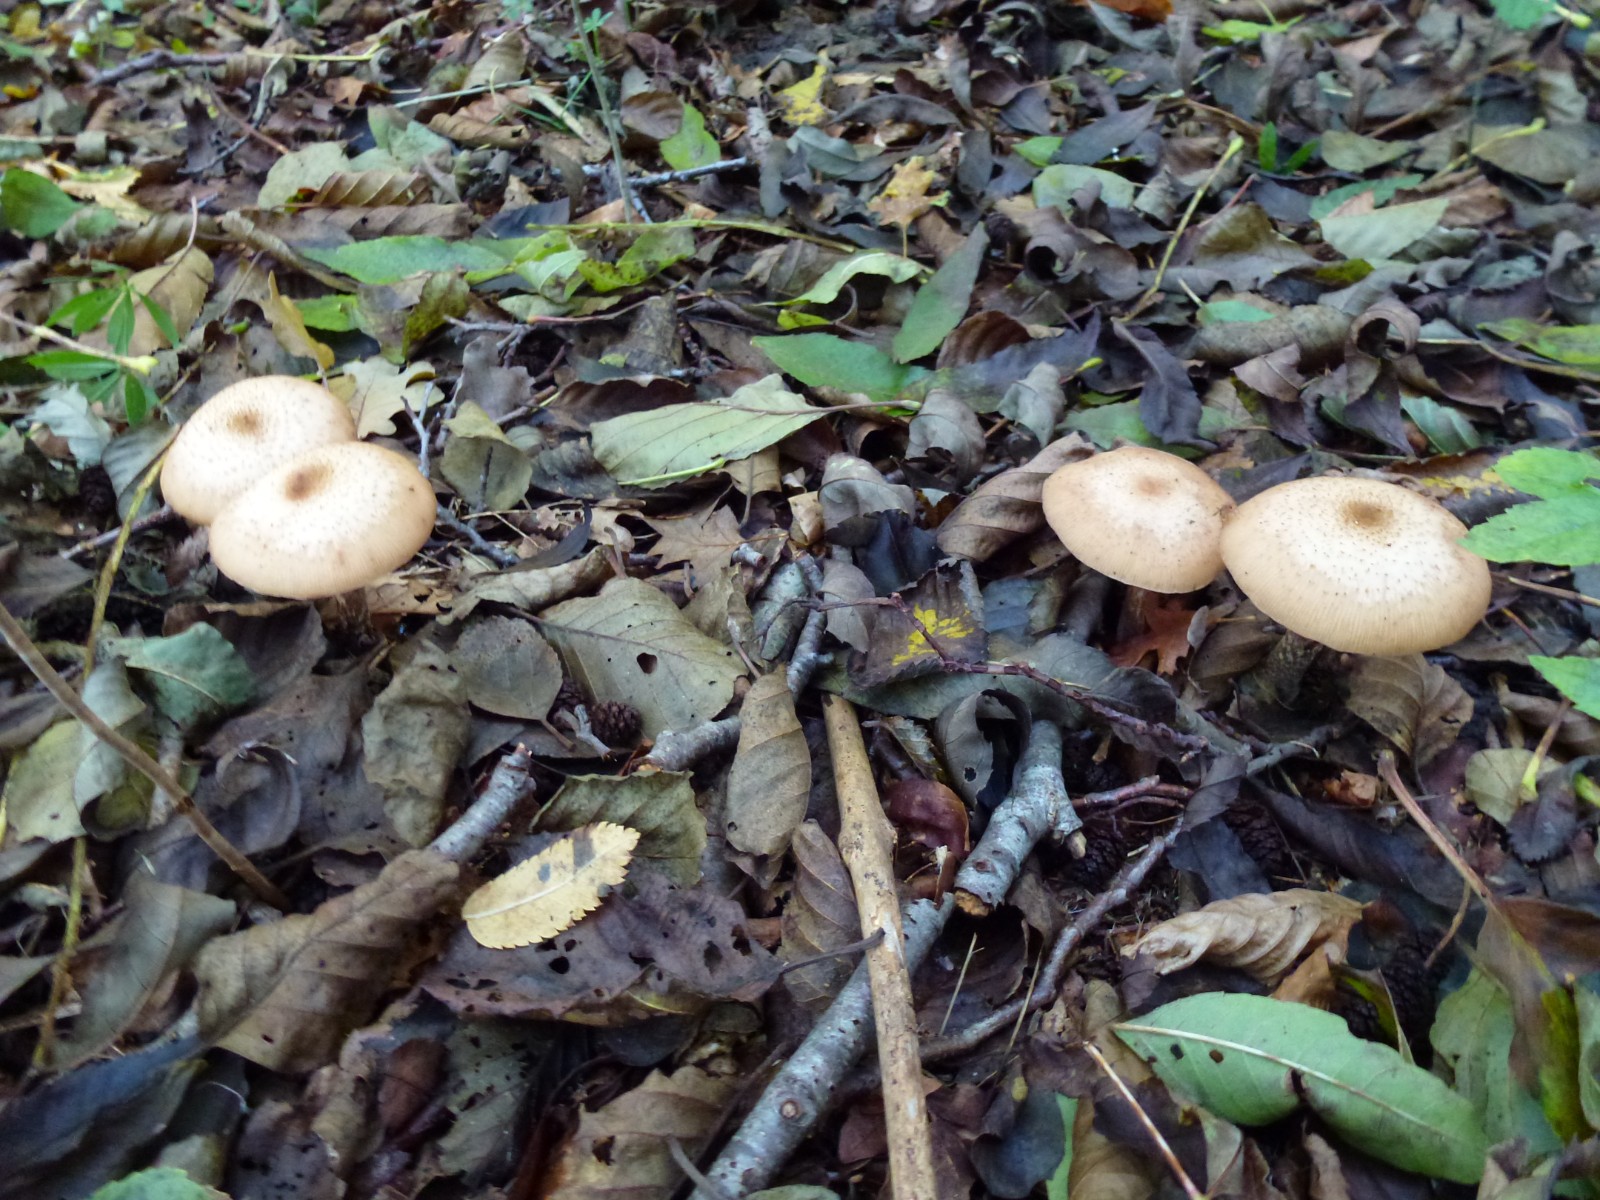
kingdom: Fungi
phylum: Basidiomycota
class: Agaricomycetes
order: Agaricales
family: Physalacriaceae
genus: Armillaria
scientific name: Armillaria
